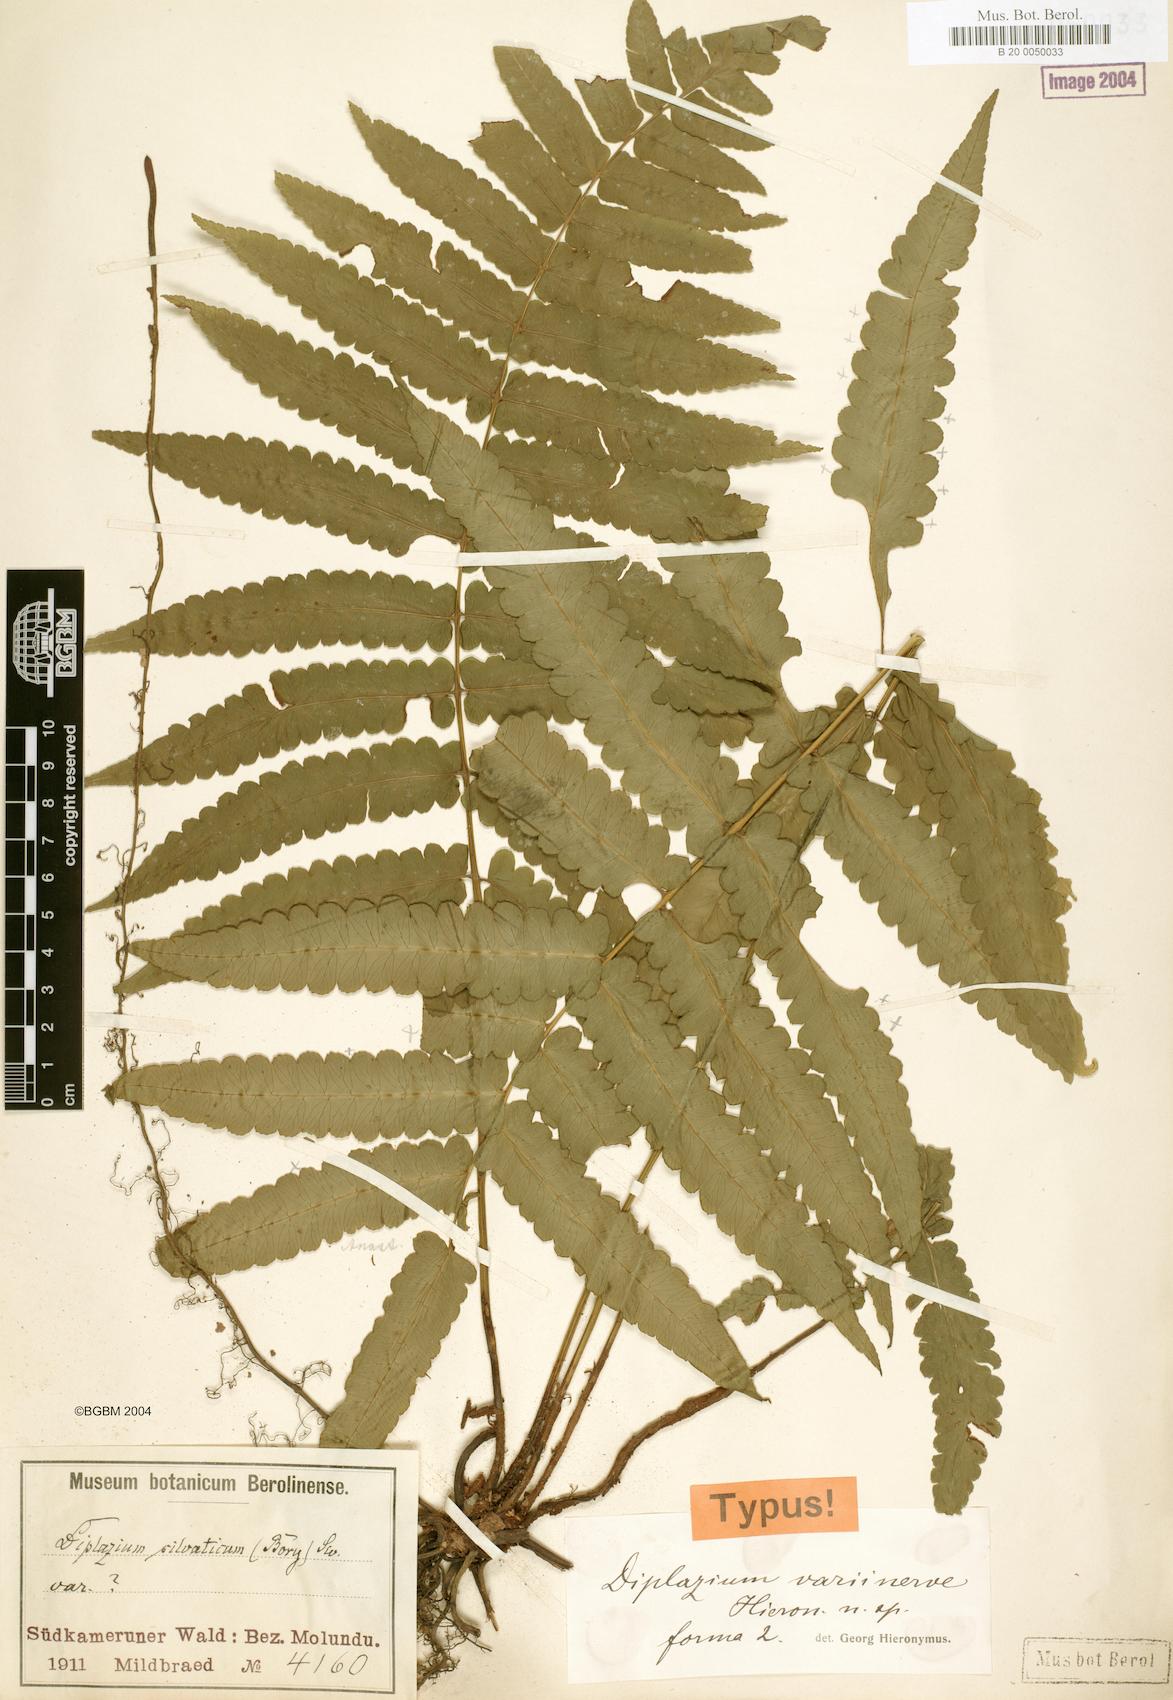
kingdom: Plantae
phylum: Tracheophyta
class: Polypodiopsida
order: Polypodiales
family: Athyriaceae
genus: Diplazium
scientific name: Diplazium welwitschii
